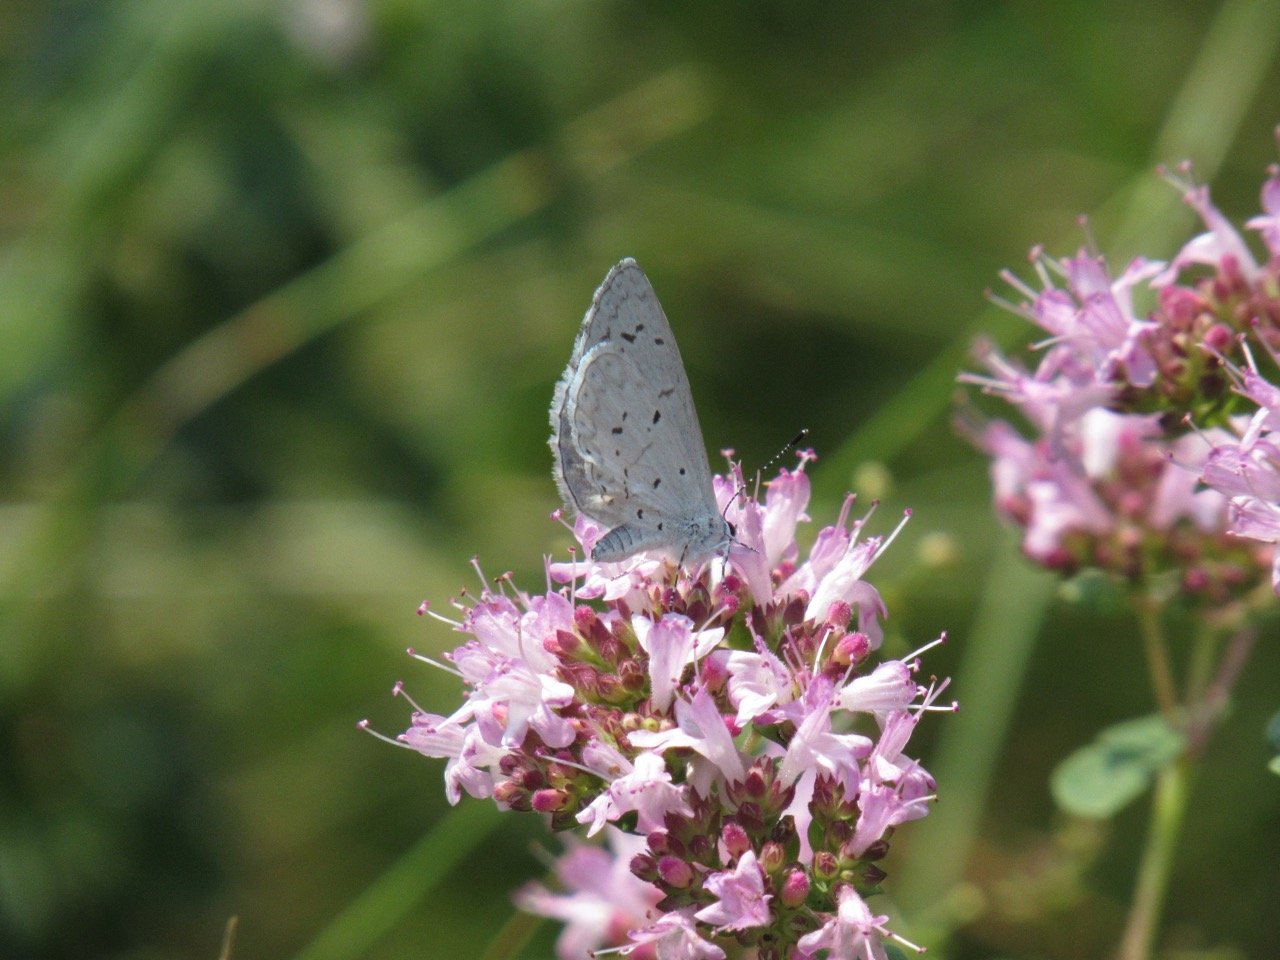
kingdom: Animalia
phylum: Arthropoda
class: Insecta
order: Lepidoptera
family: Lycaenidae
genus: Celastrina
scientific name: Celastrina
